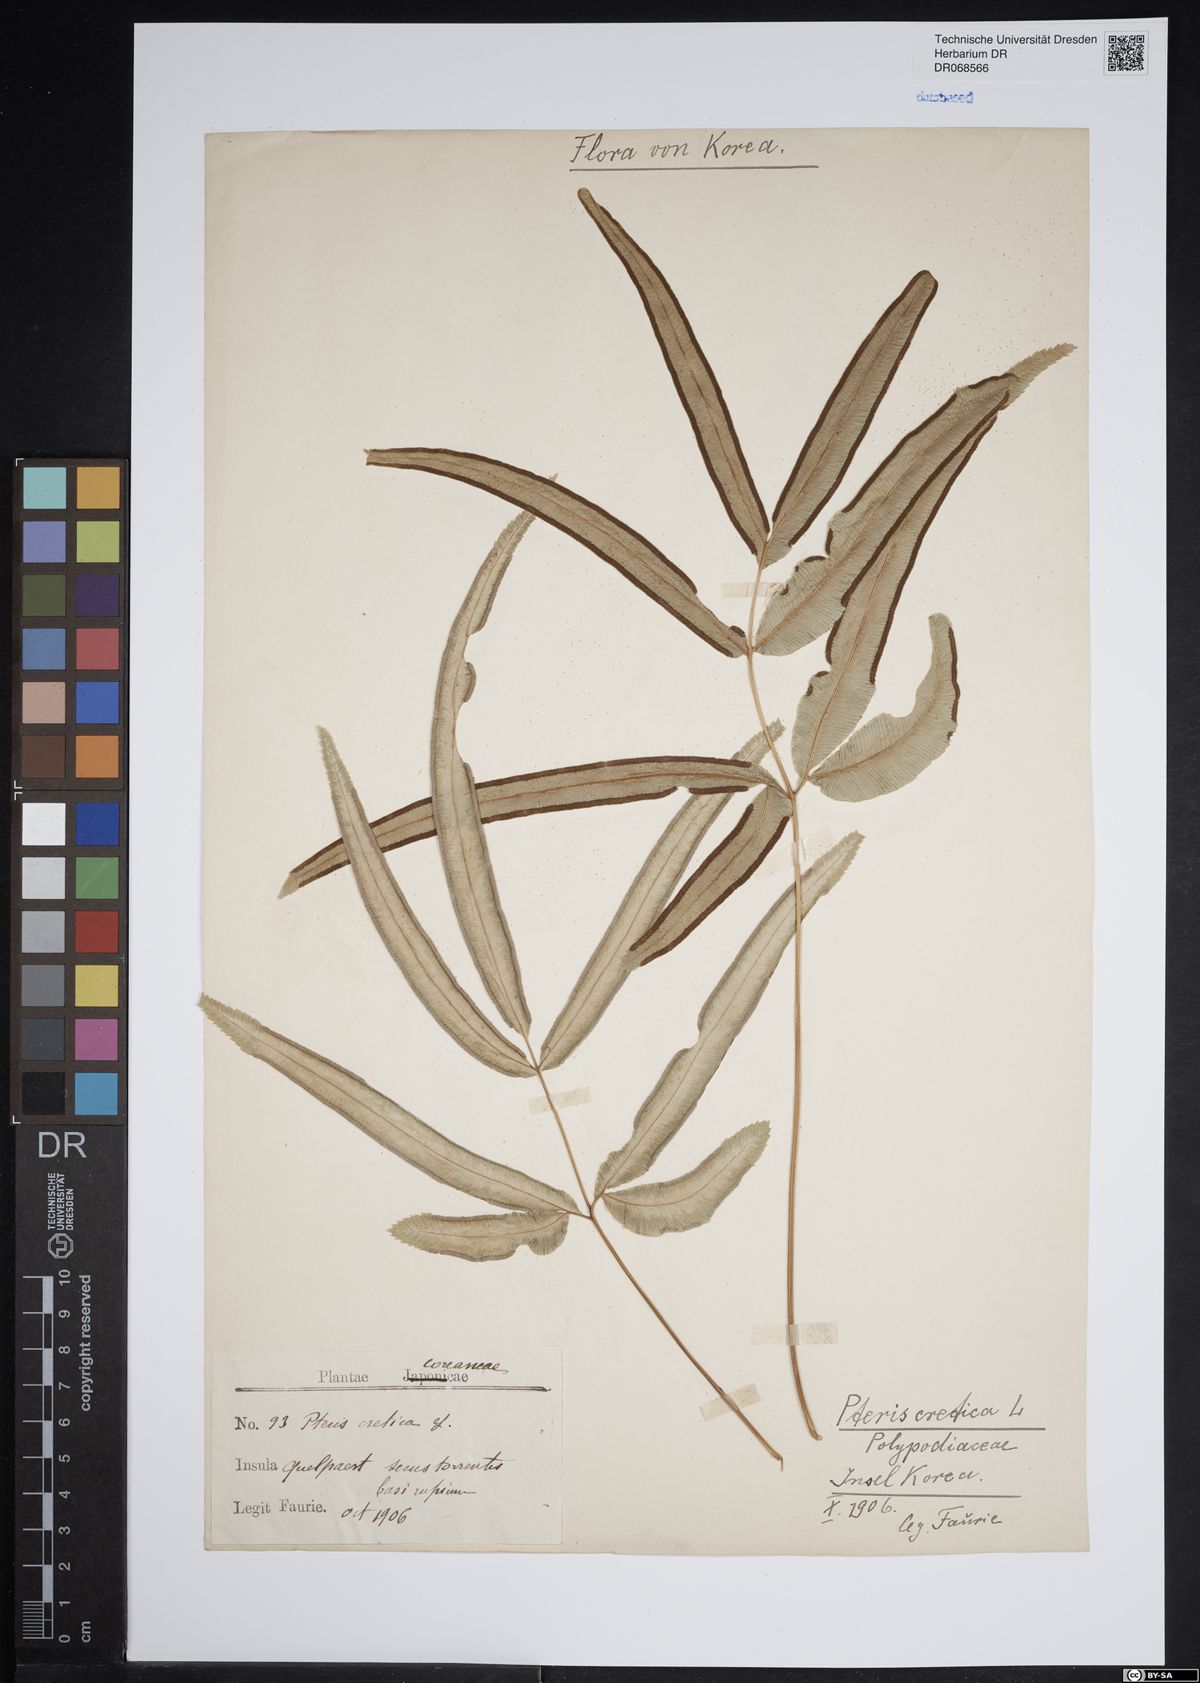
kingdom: Plantae
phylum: Tracheophyta
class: Polypodiopsida
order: Polypodiales
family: Pteridaceae
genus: Pteris
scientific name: Pteris cretica
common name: Ribbon fern
